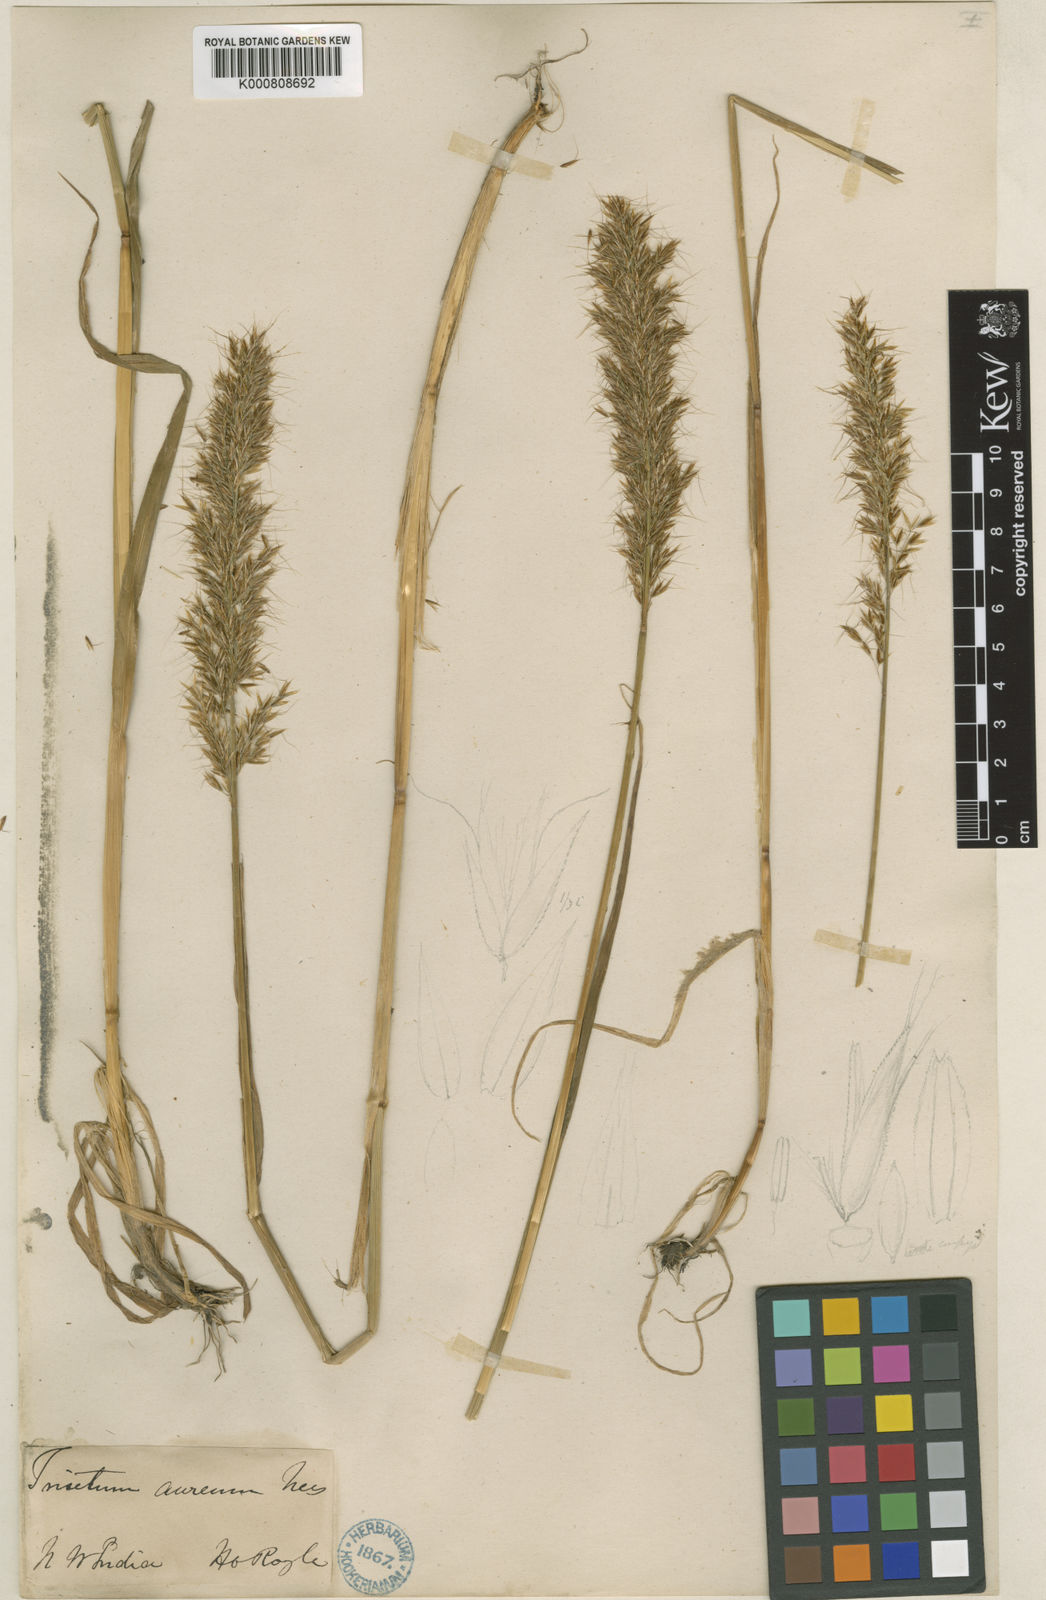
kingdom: Plantae
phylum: Tracheophyta
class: Liliopsida
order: Poales
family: Poaceae
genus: Sibirotrisetum
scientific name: Sibirotrisetum aeneum
